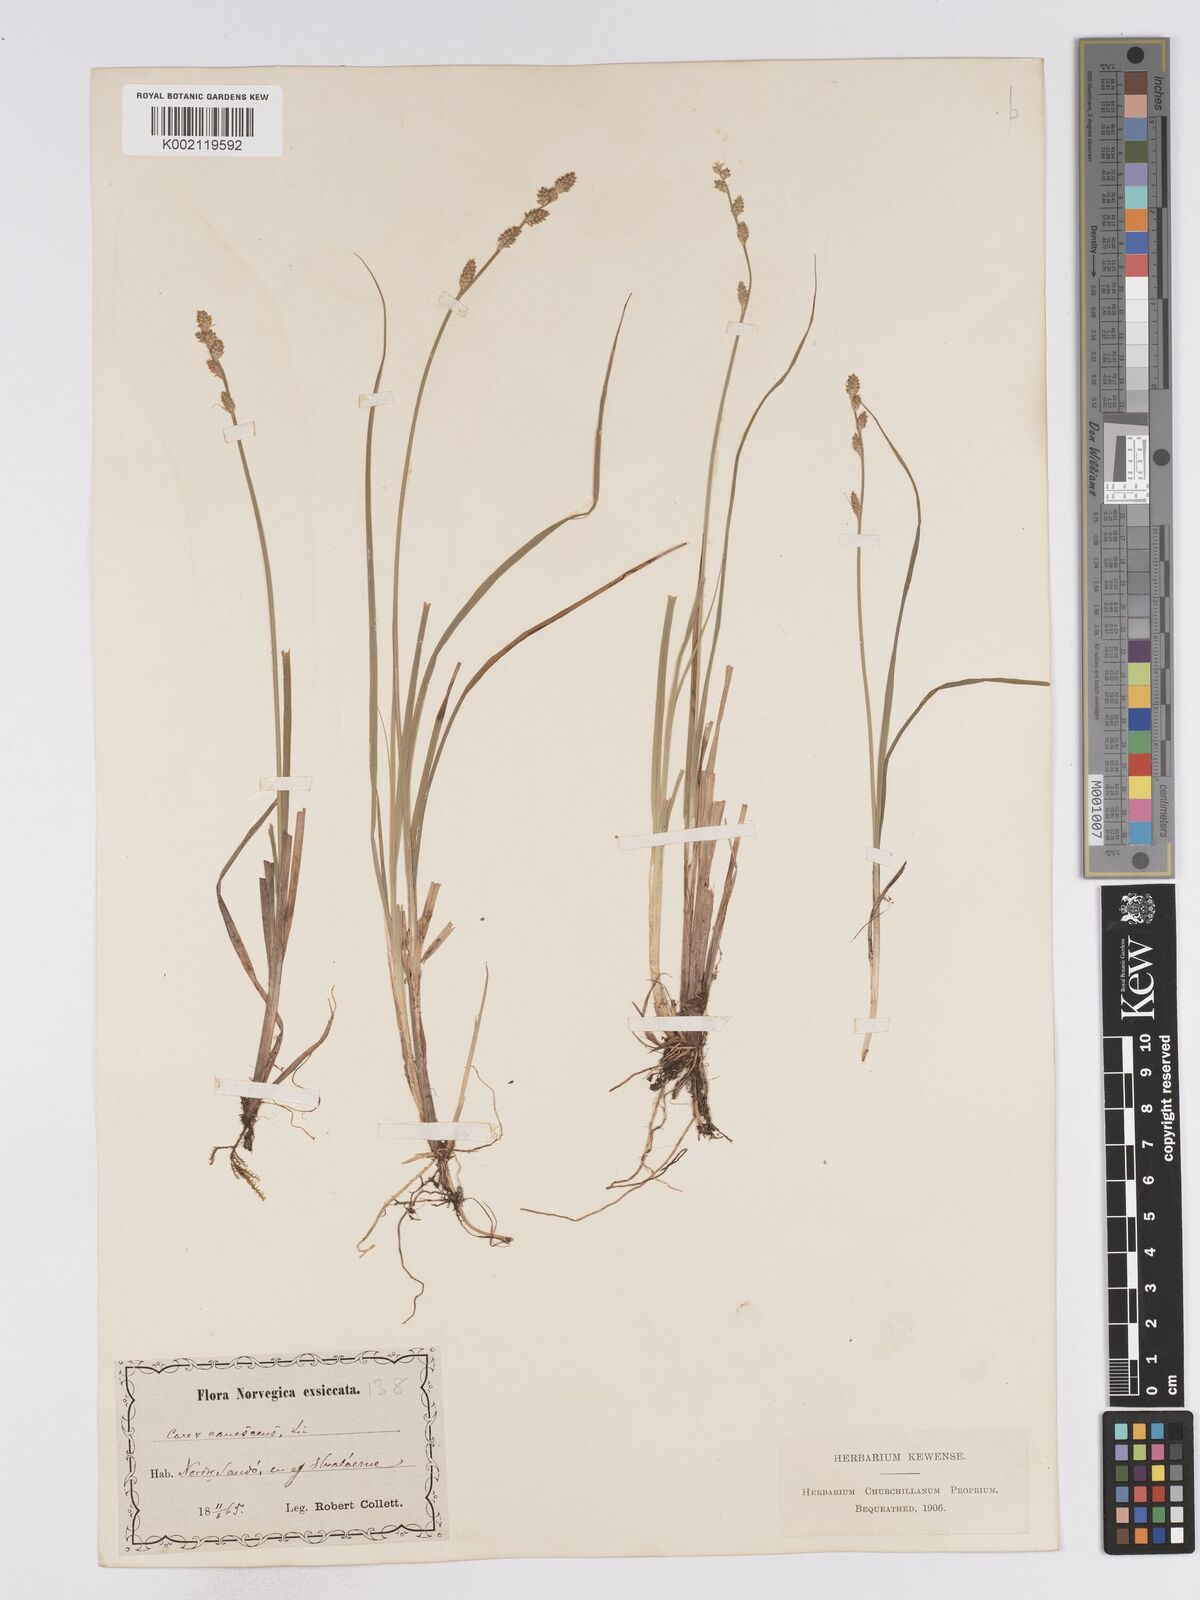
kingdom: Plantae
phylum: Tracheophyta
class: Liliopsida
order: Poales
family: Cyperaceae
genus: Carex
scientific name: Carex curta
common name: White sedge
